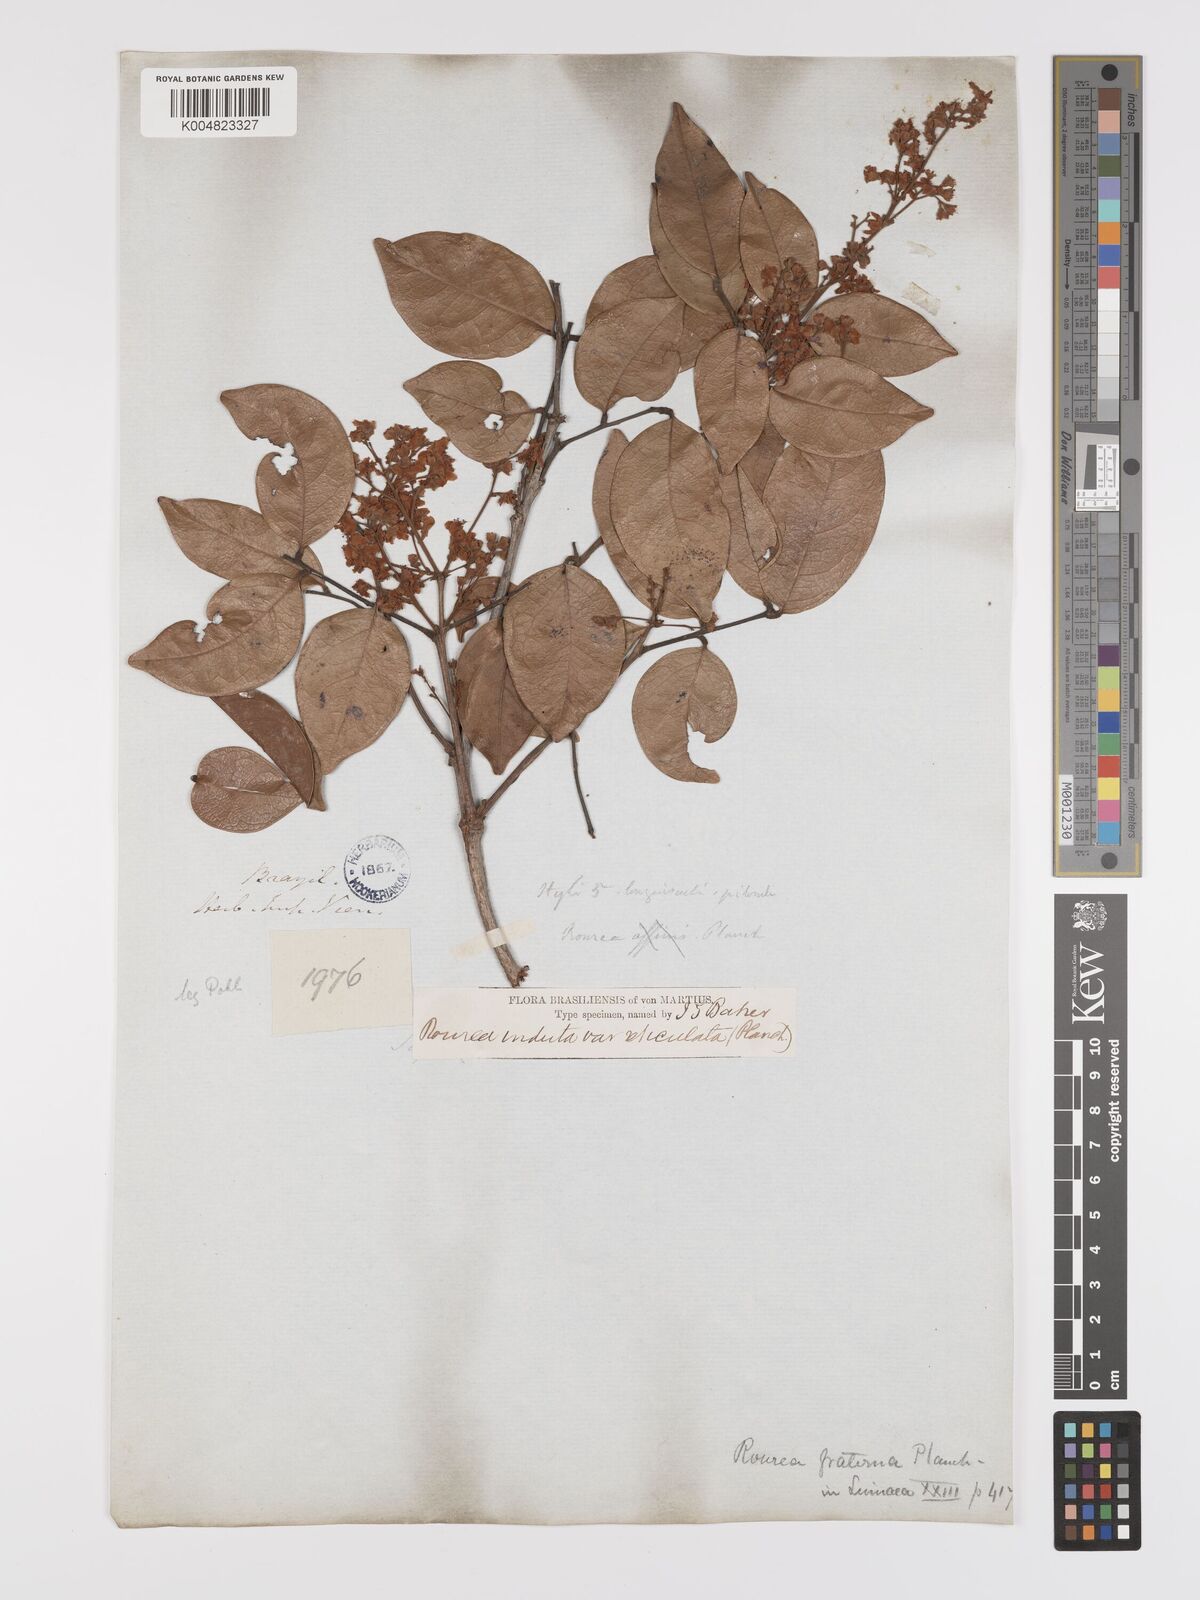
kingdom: Plantae
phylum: Tracheophyta
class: Magnoliopsida
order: Oxalidales
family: Connaraceae
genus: Rourea
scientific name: Rourea induta
